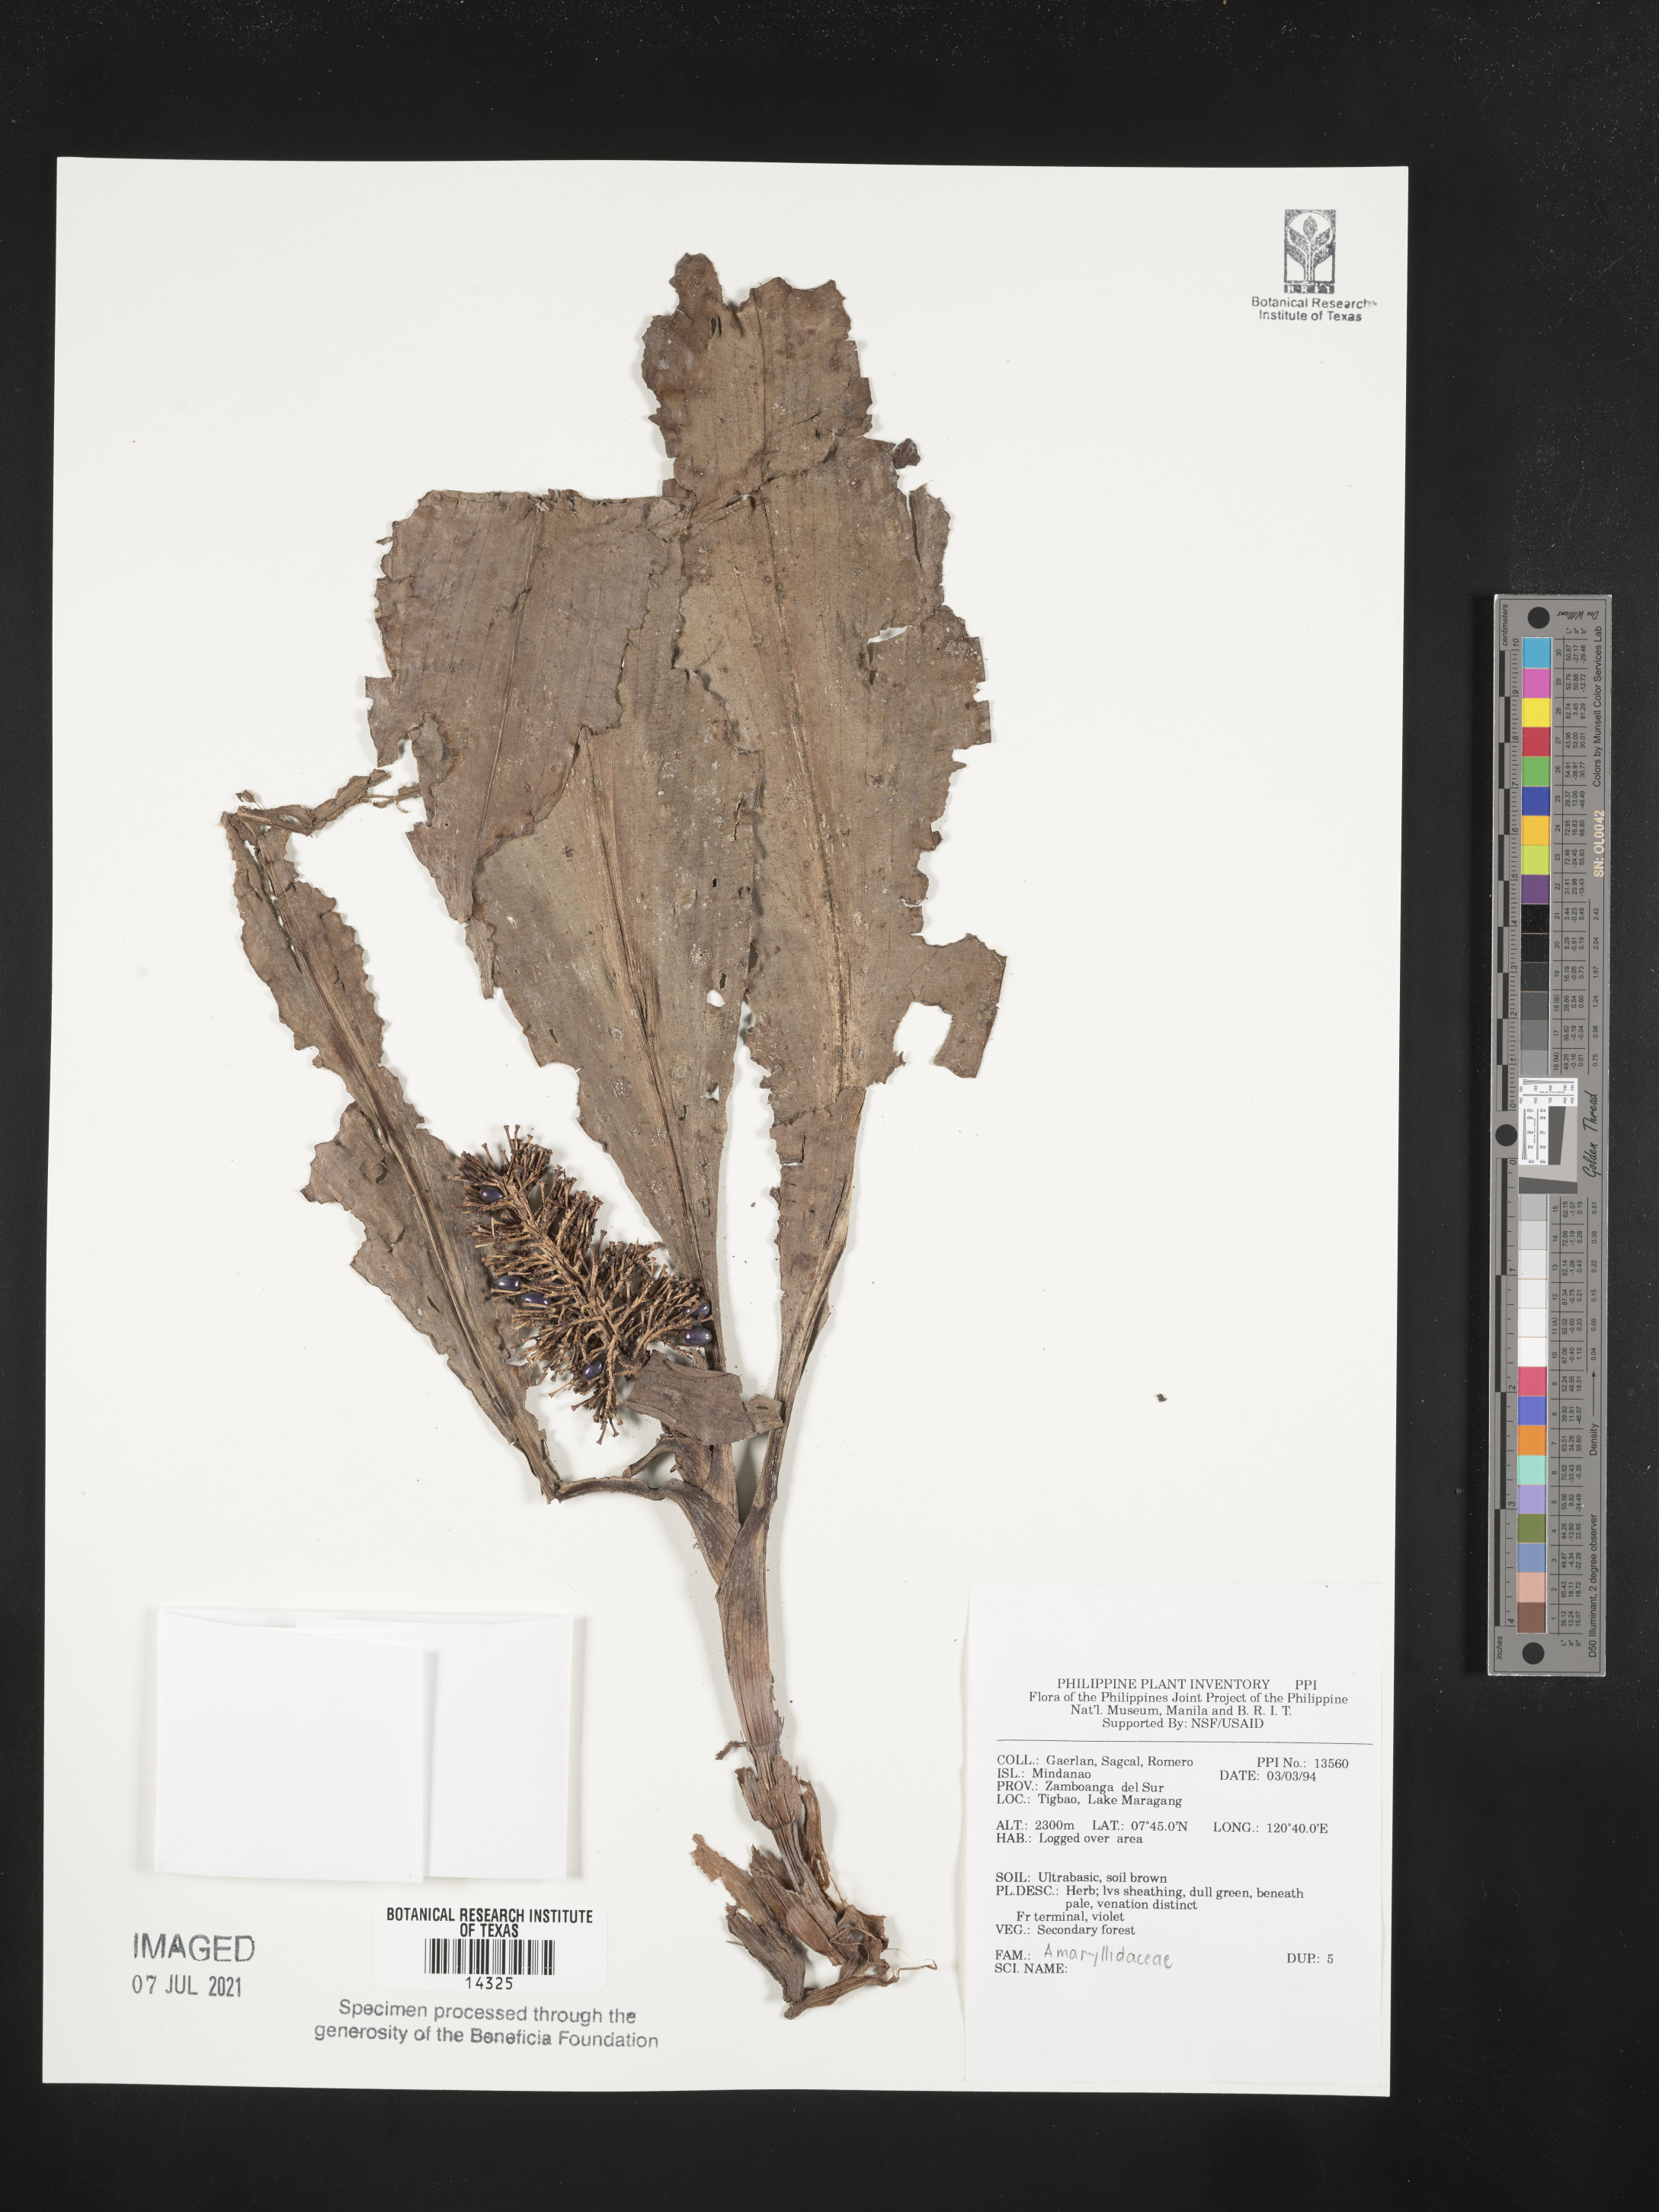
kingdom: Plantae
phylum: Tracheophyta
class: Liliopsida
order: Asparagales
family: Amaryllidaceae
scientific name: Amaryllidaceae
